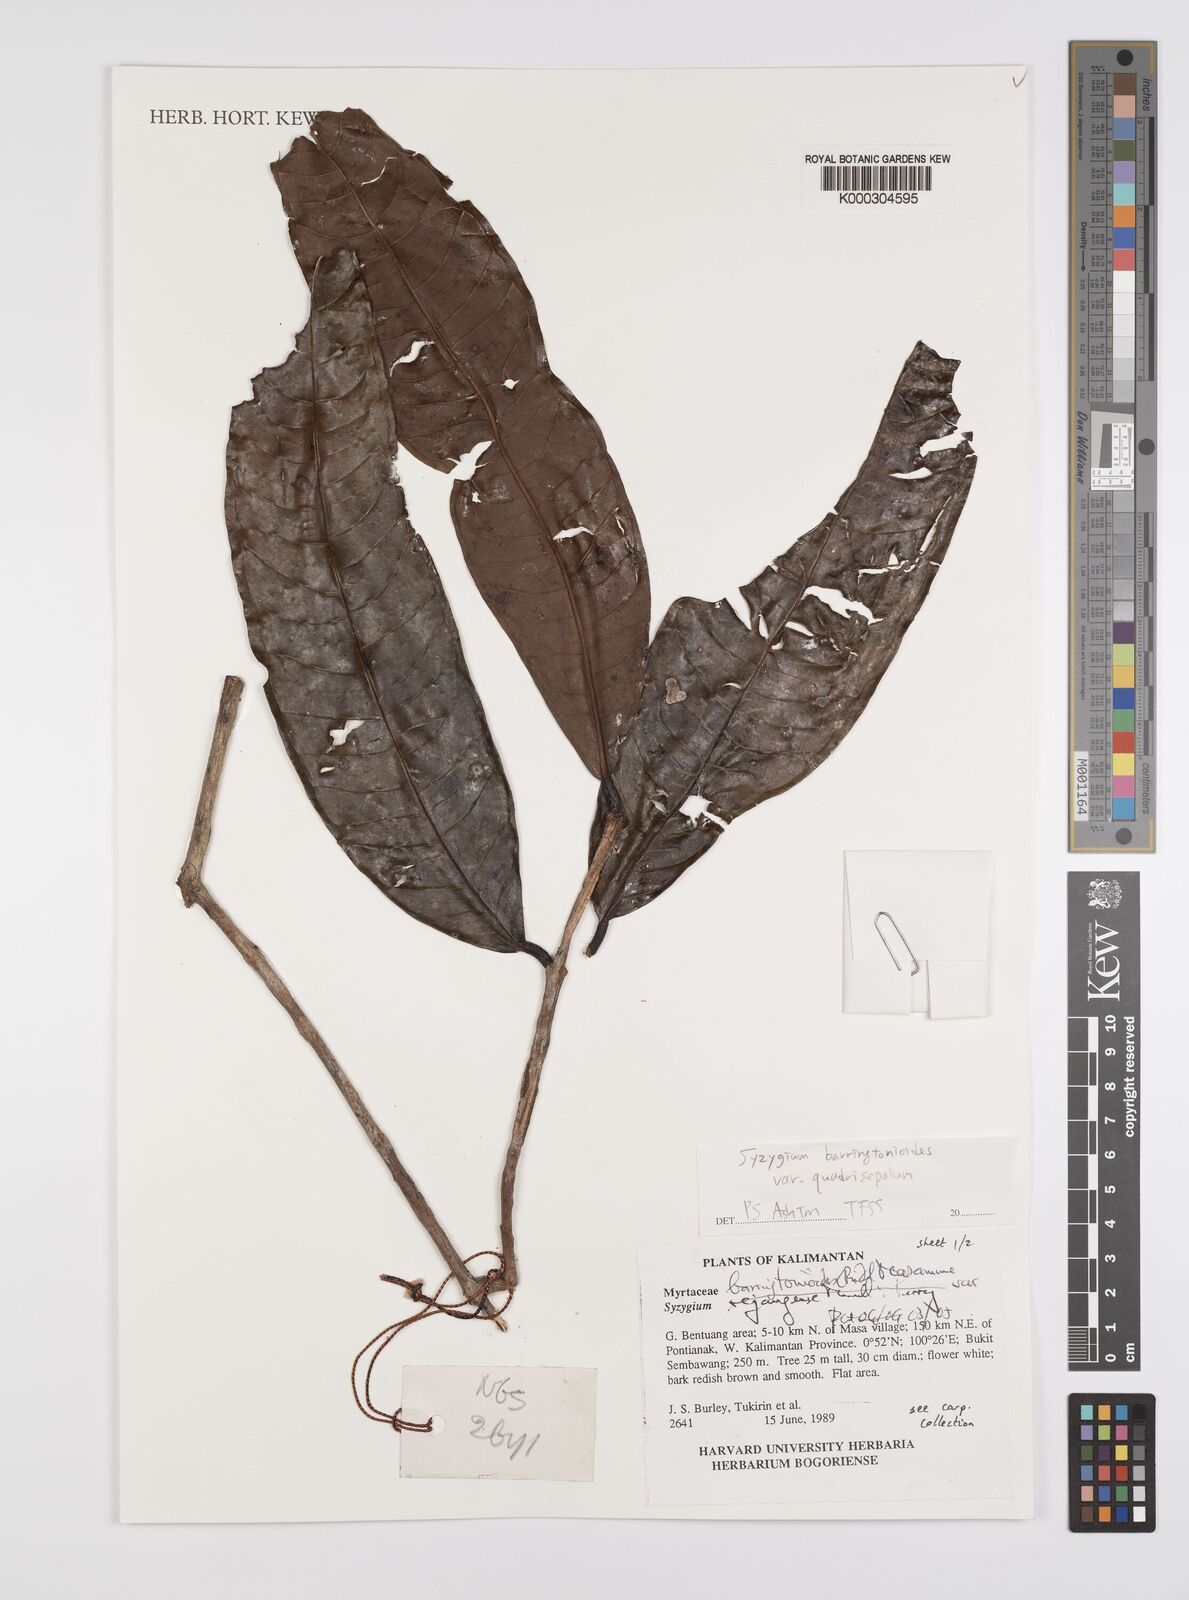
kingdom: Plantae
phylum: Tracheophyta
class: Magnoliopsida
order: Myrtales
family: Myrtaceae
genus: Syzygium
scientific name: Syzygium barringtonioides
